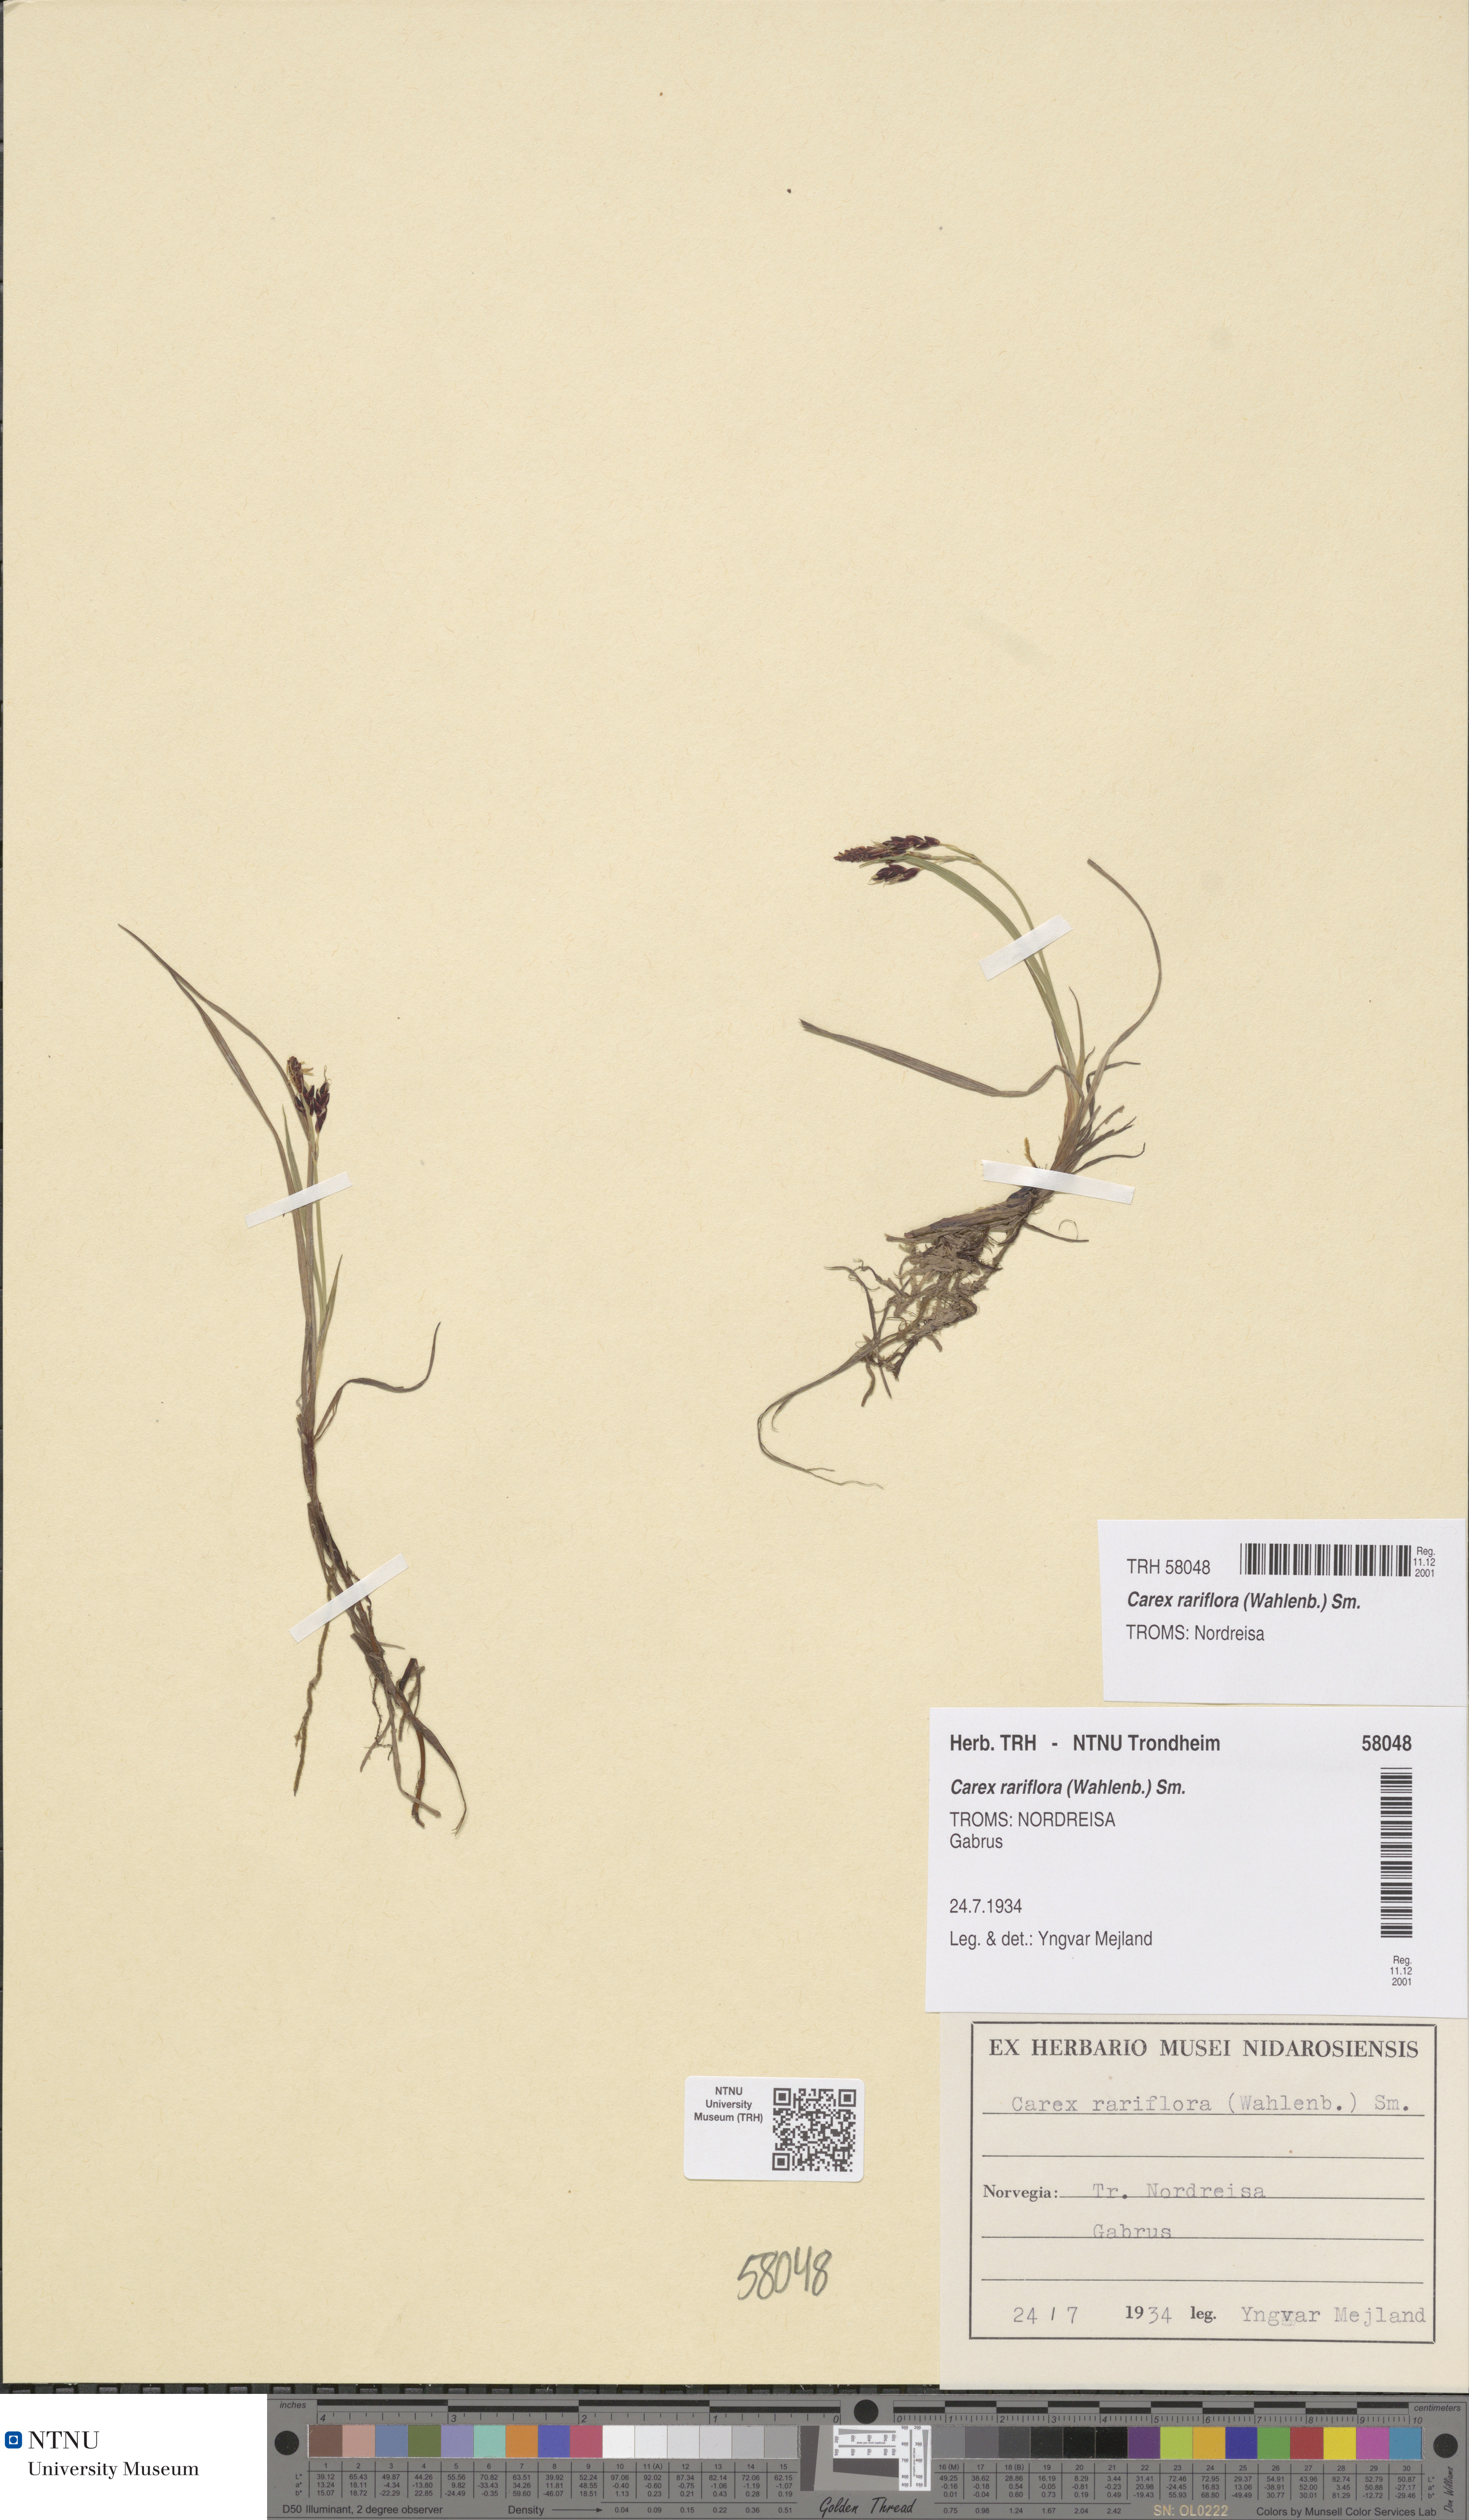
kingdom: Plantae
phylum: Tracheophyta
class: Liliopsida
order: Poales
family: Cyperaceae
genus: Carex
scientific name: Carex rariflora
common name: Loose-flowered alpine sedge
